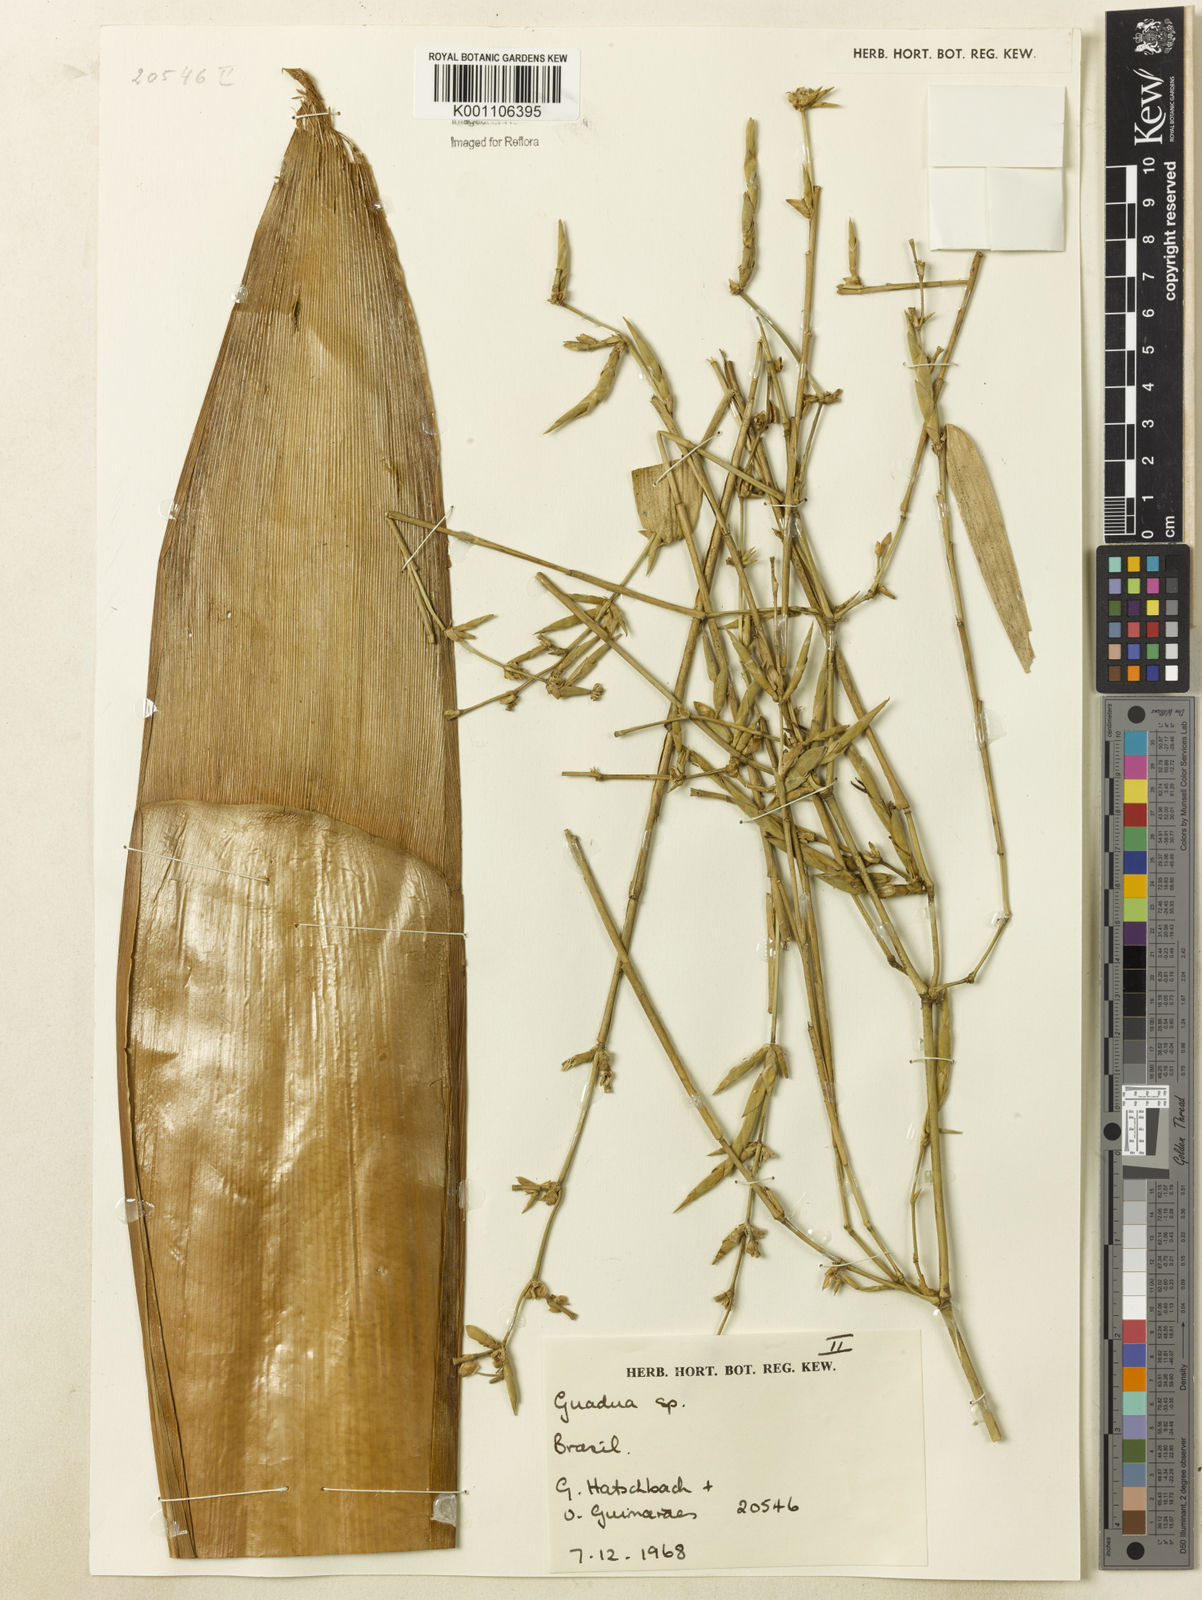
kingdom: Plantae
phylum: Tracheophyta
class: Liliopsida
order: Poales
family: Poaceae
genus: Guadua
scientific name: Guadua
